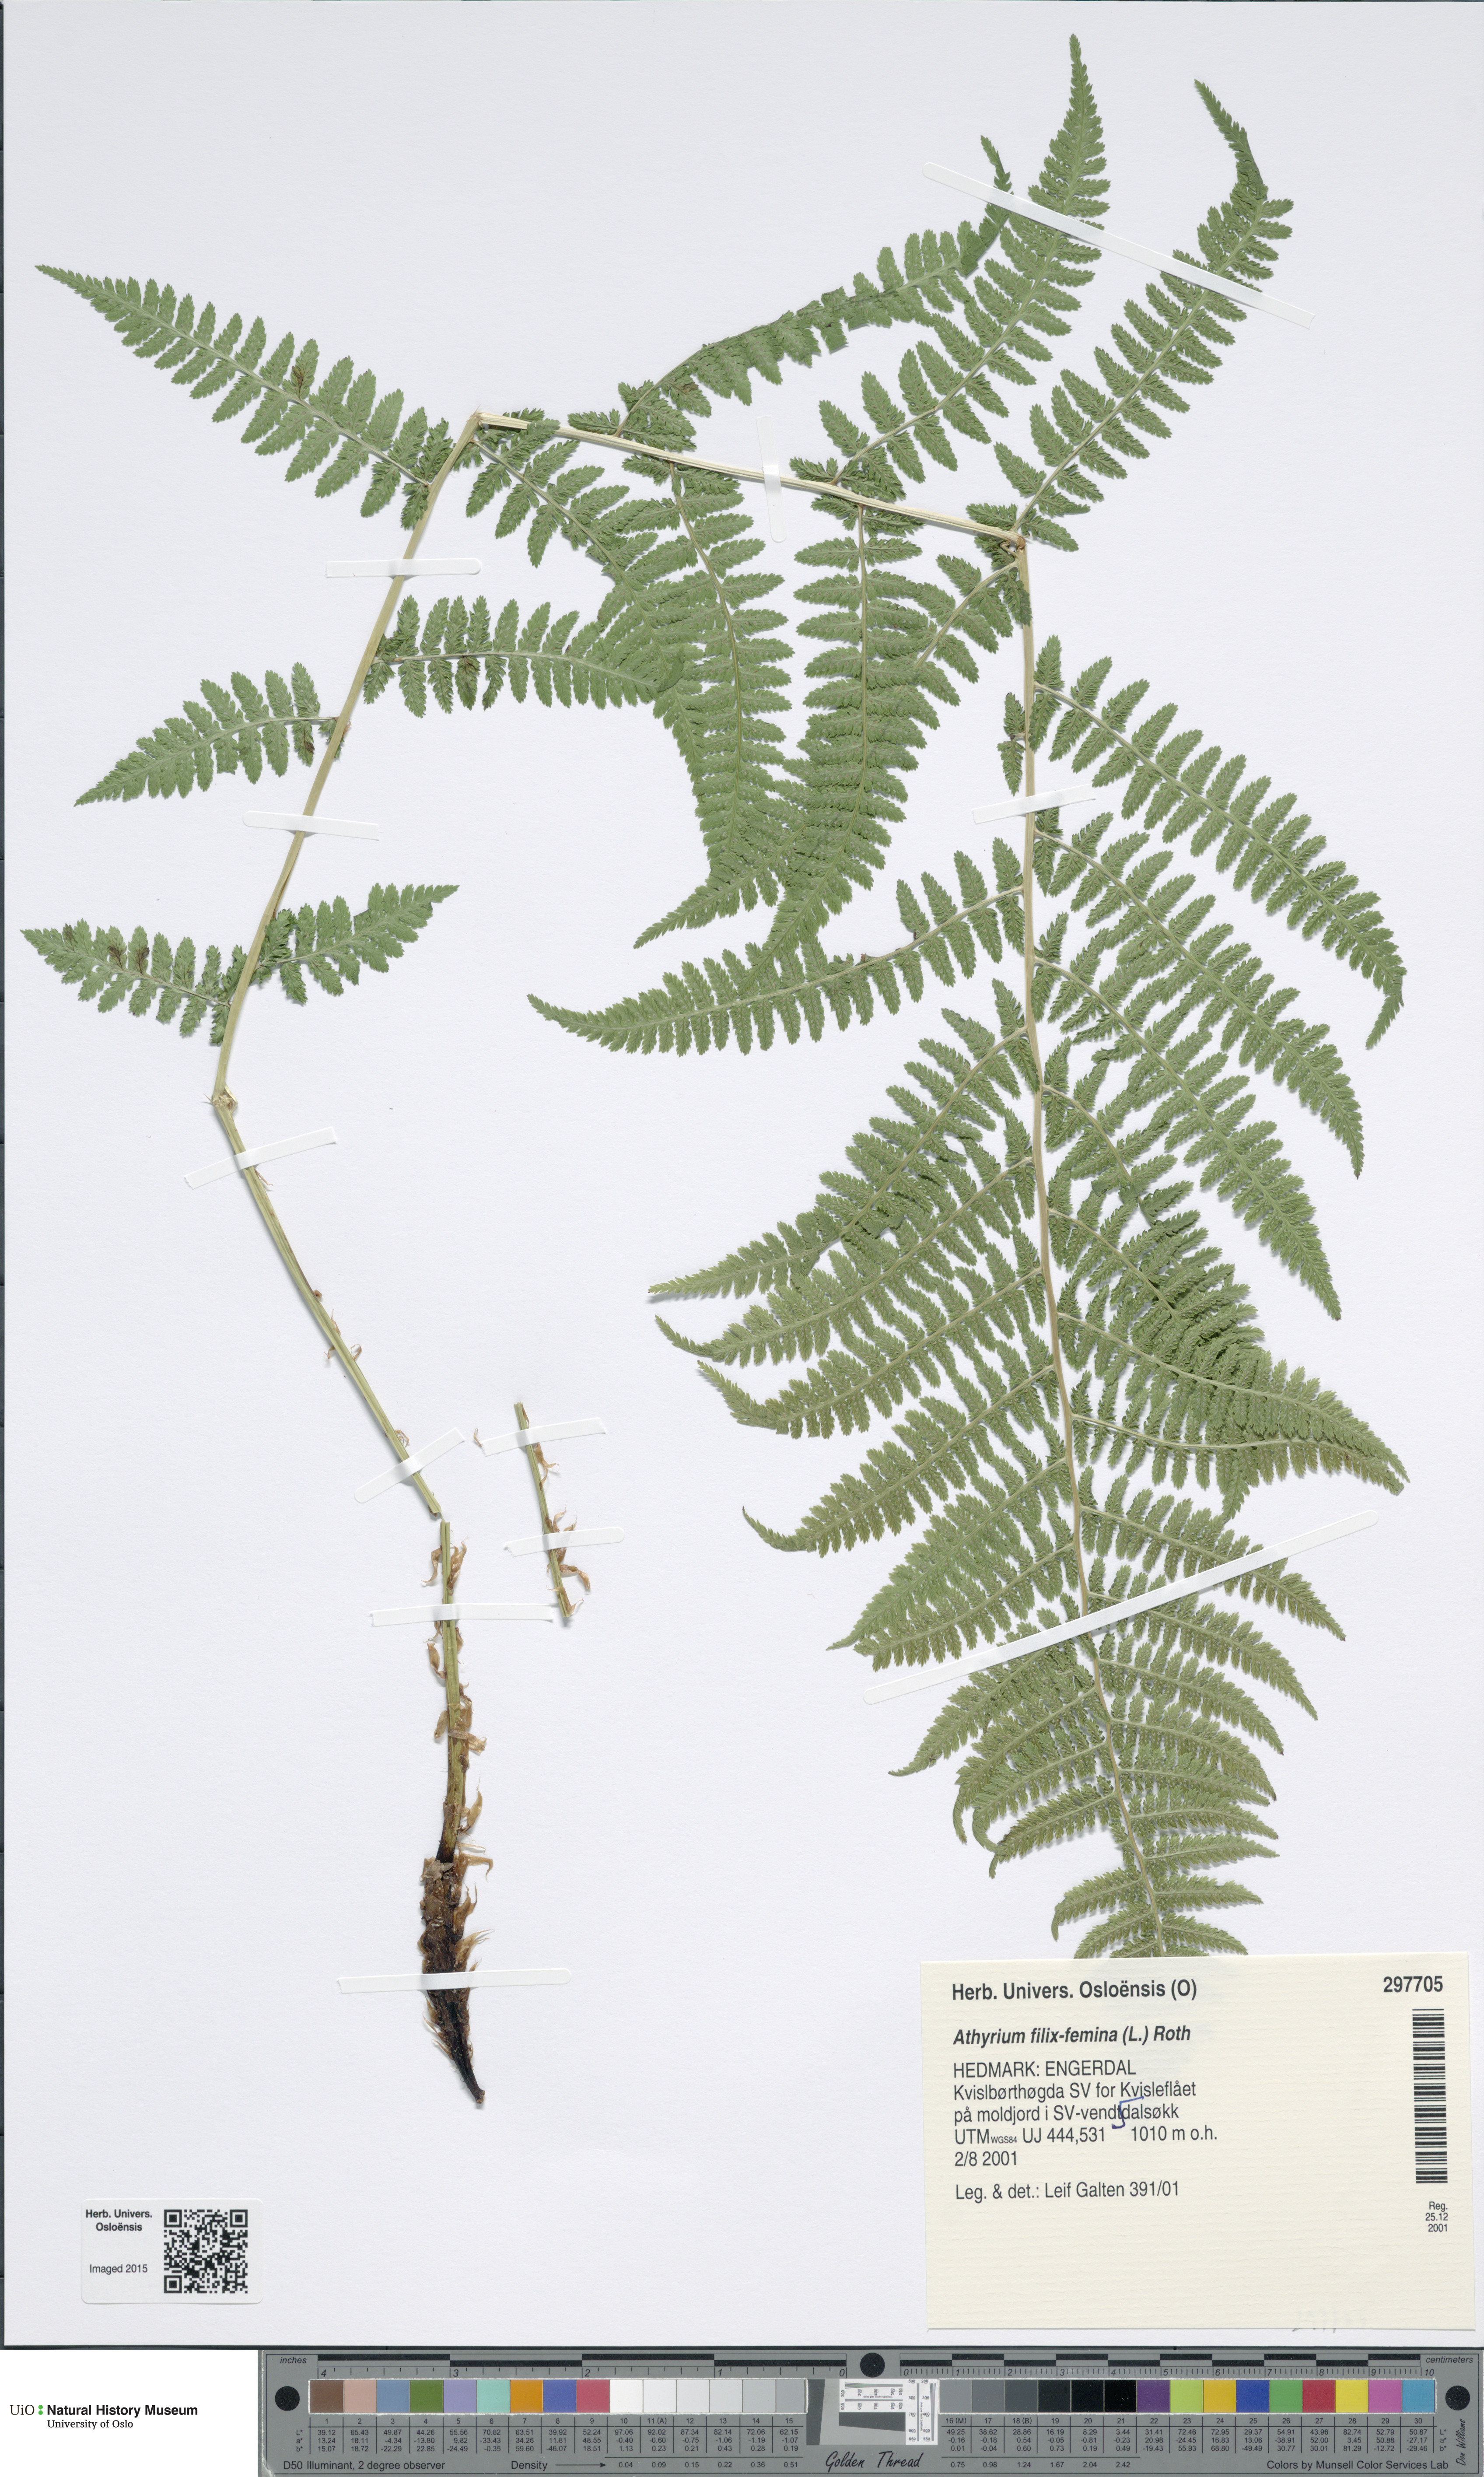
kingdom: Plantae
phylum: Tracheophyta
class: Polypodiopsida
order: Polypodiales
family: Athyriaceae
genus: Athyrium
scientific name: Athyrium filix-femina
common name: Lady fern
